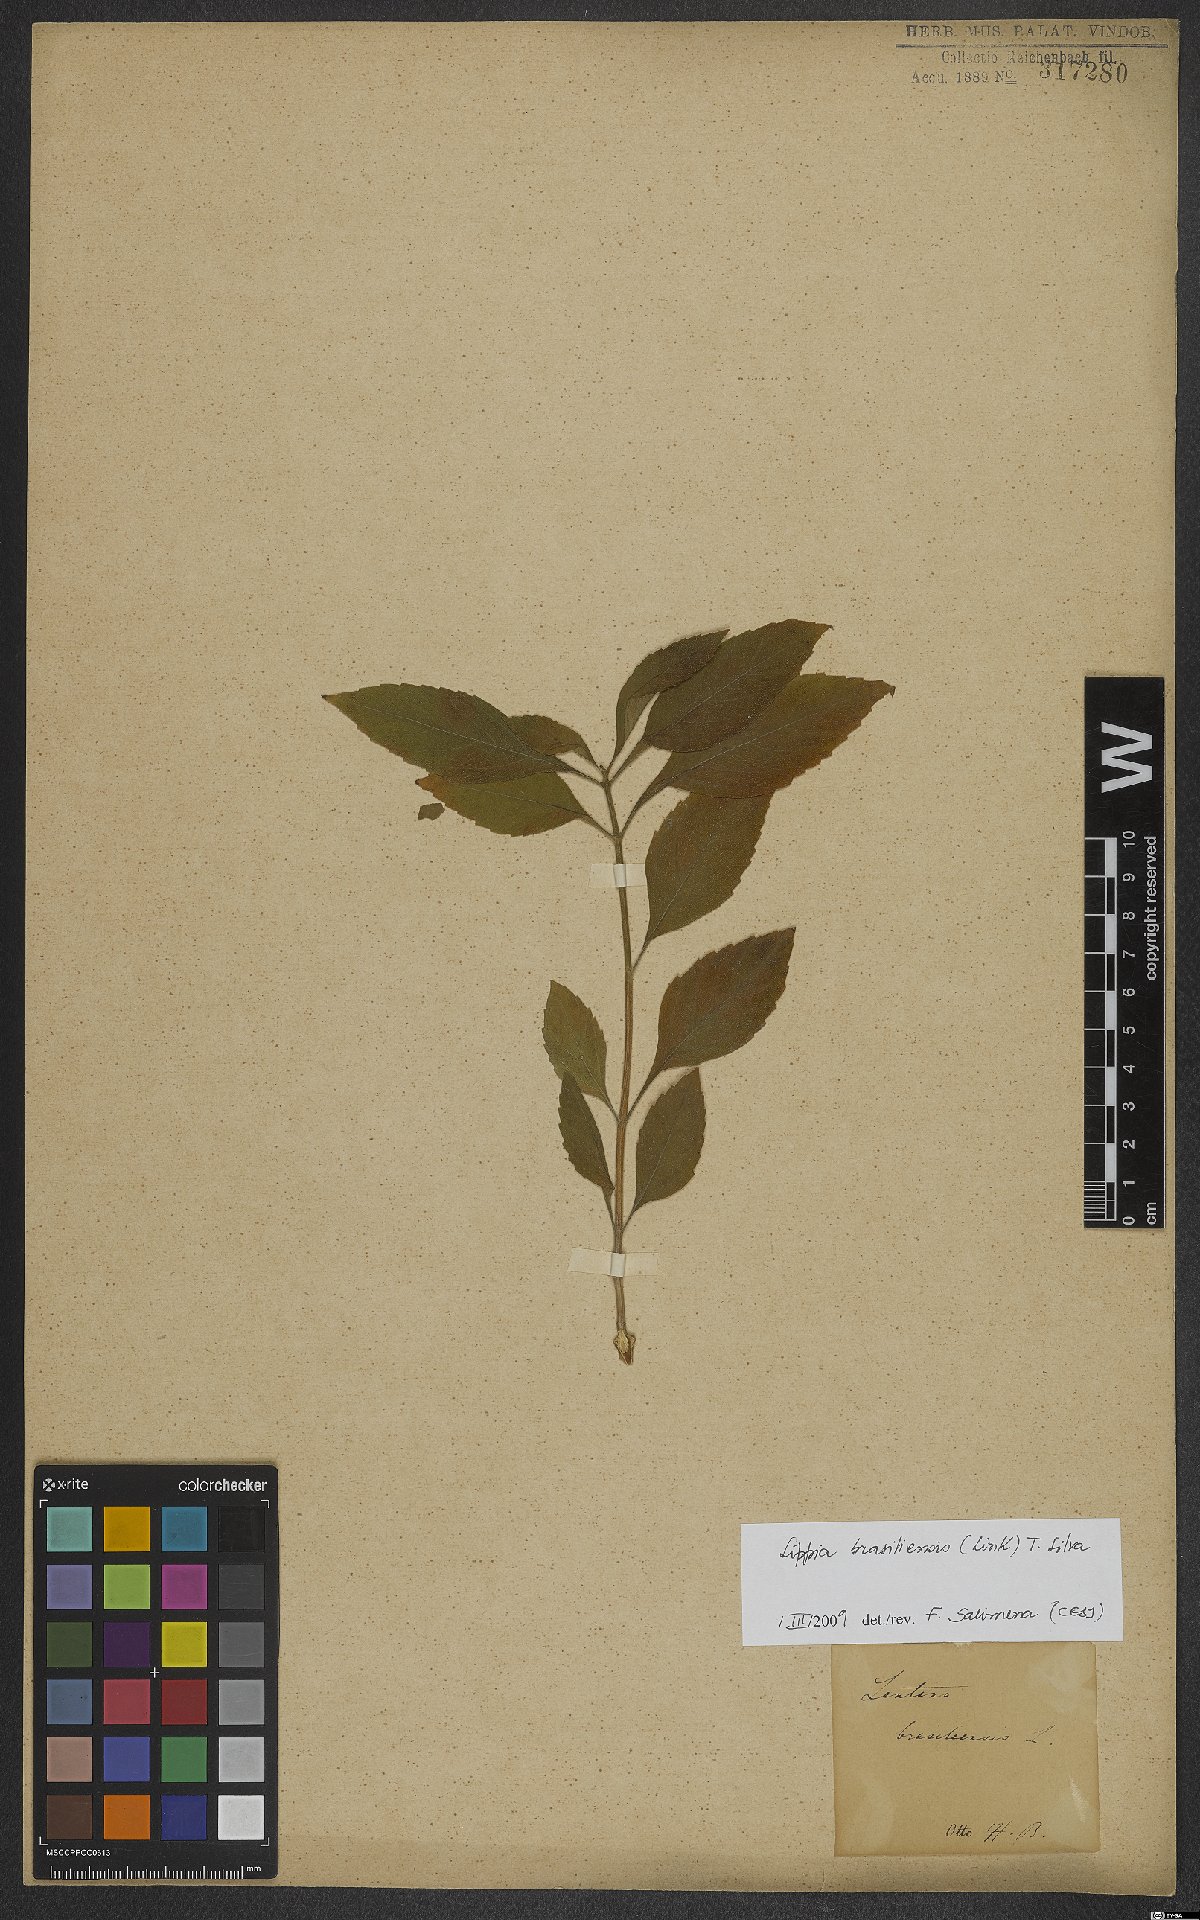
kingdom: Plantae
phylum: Tracheophyta
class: Magnoliopsida
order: Lamiales
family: Verbenaceae
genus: Lippia
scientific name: Lippia brasiliensis
